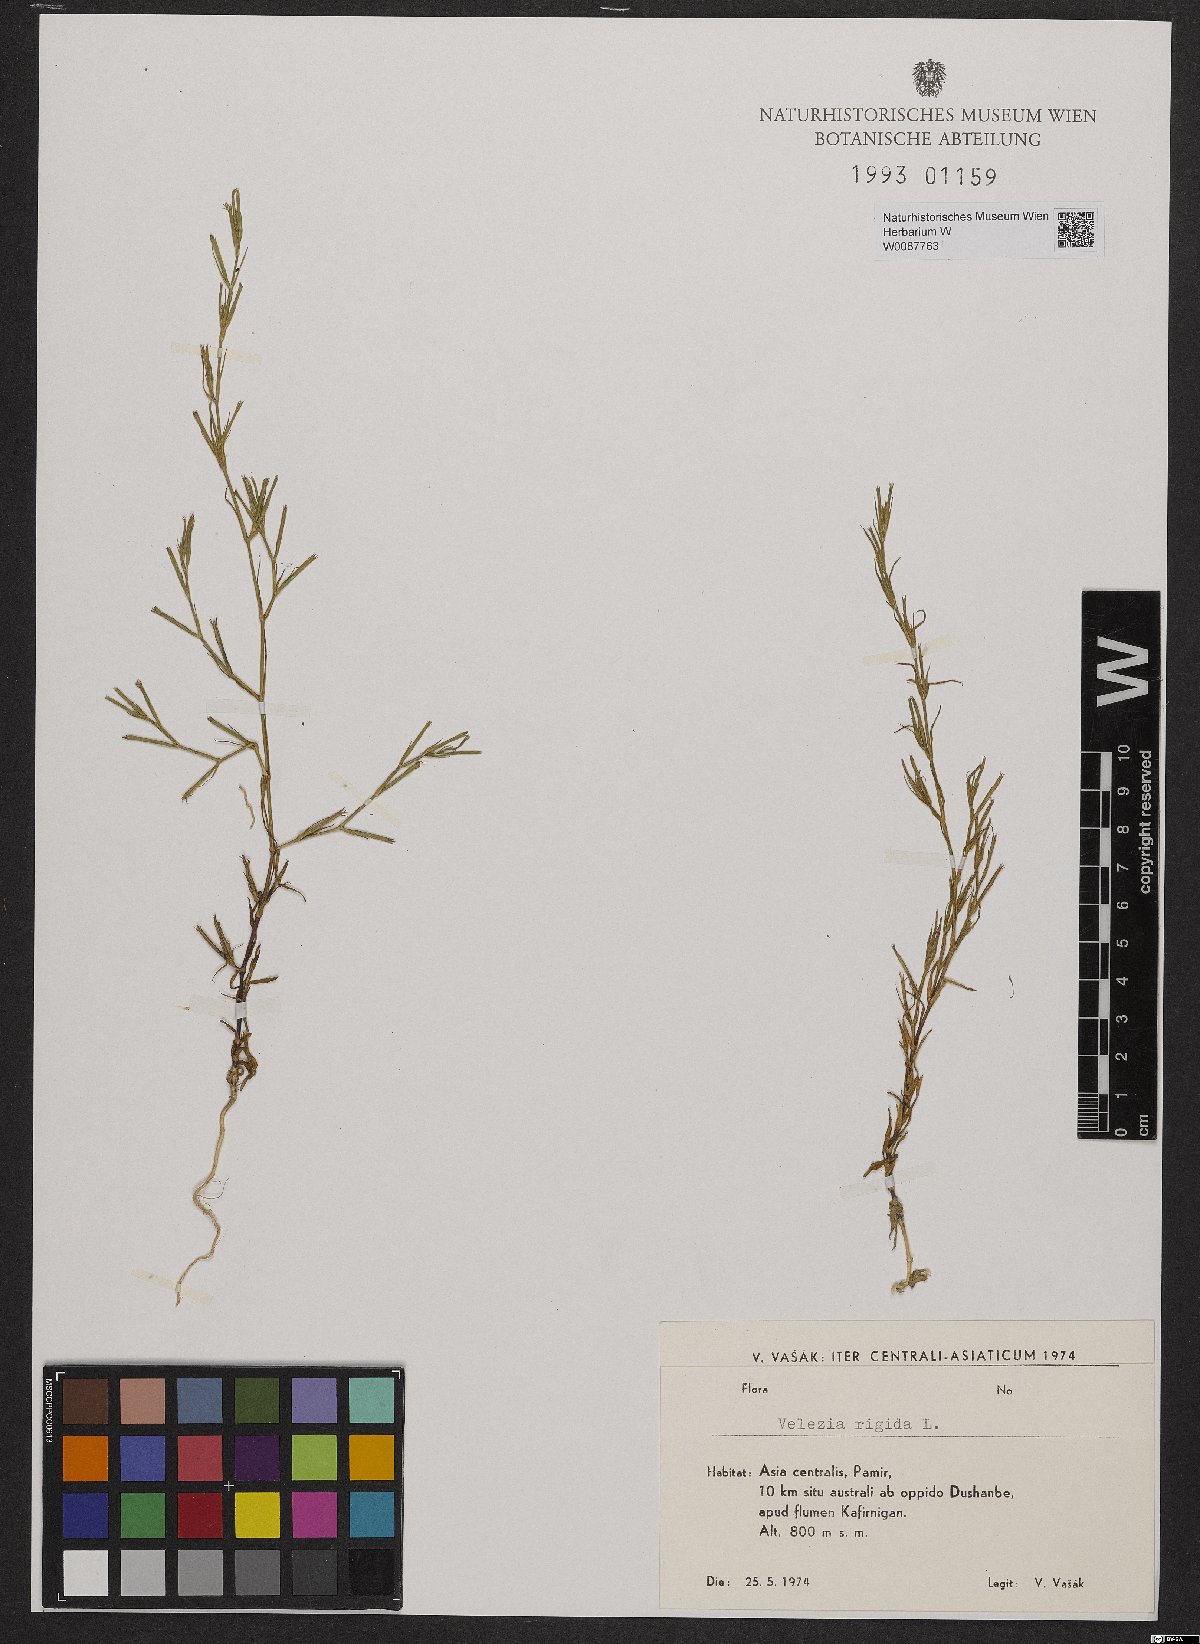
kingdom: Plantae
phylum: Tracheophyta
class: Magnoliopsida
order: Caryophyllales
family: Caryophyllaceae
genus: Dianthus
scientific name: Dianthus nudiflorus
